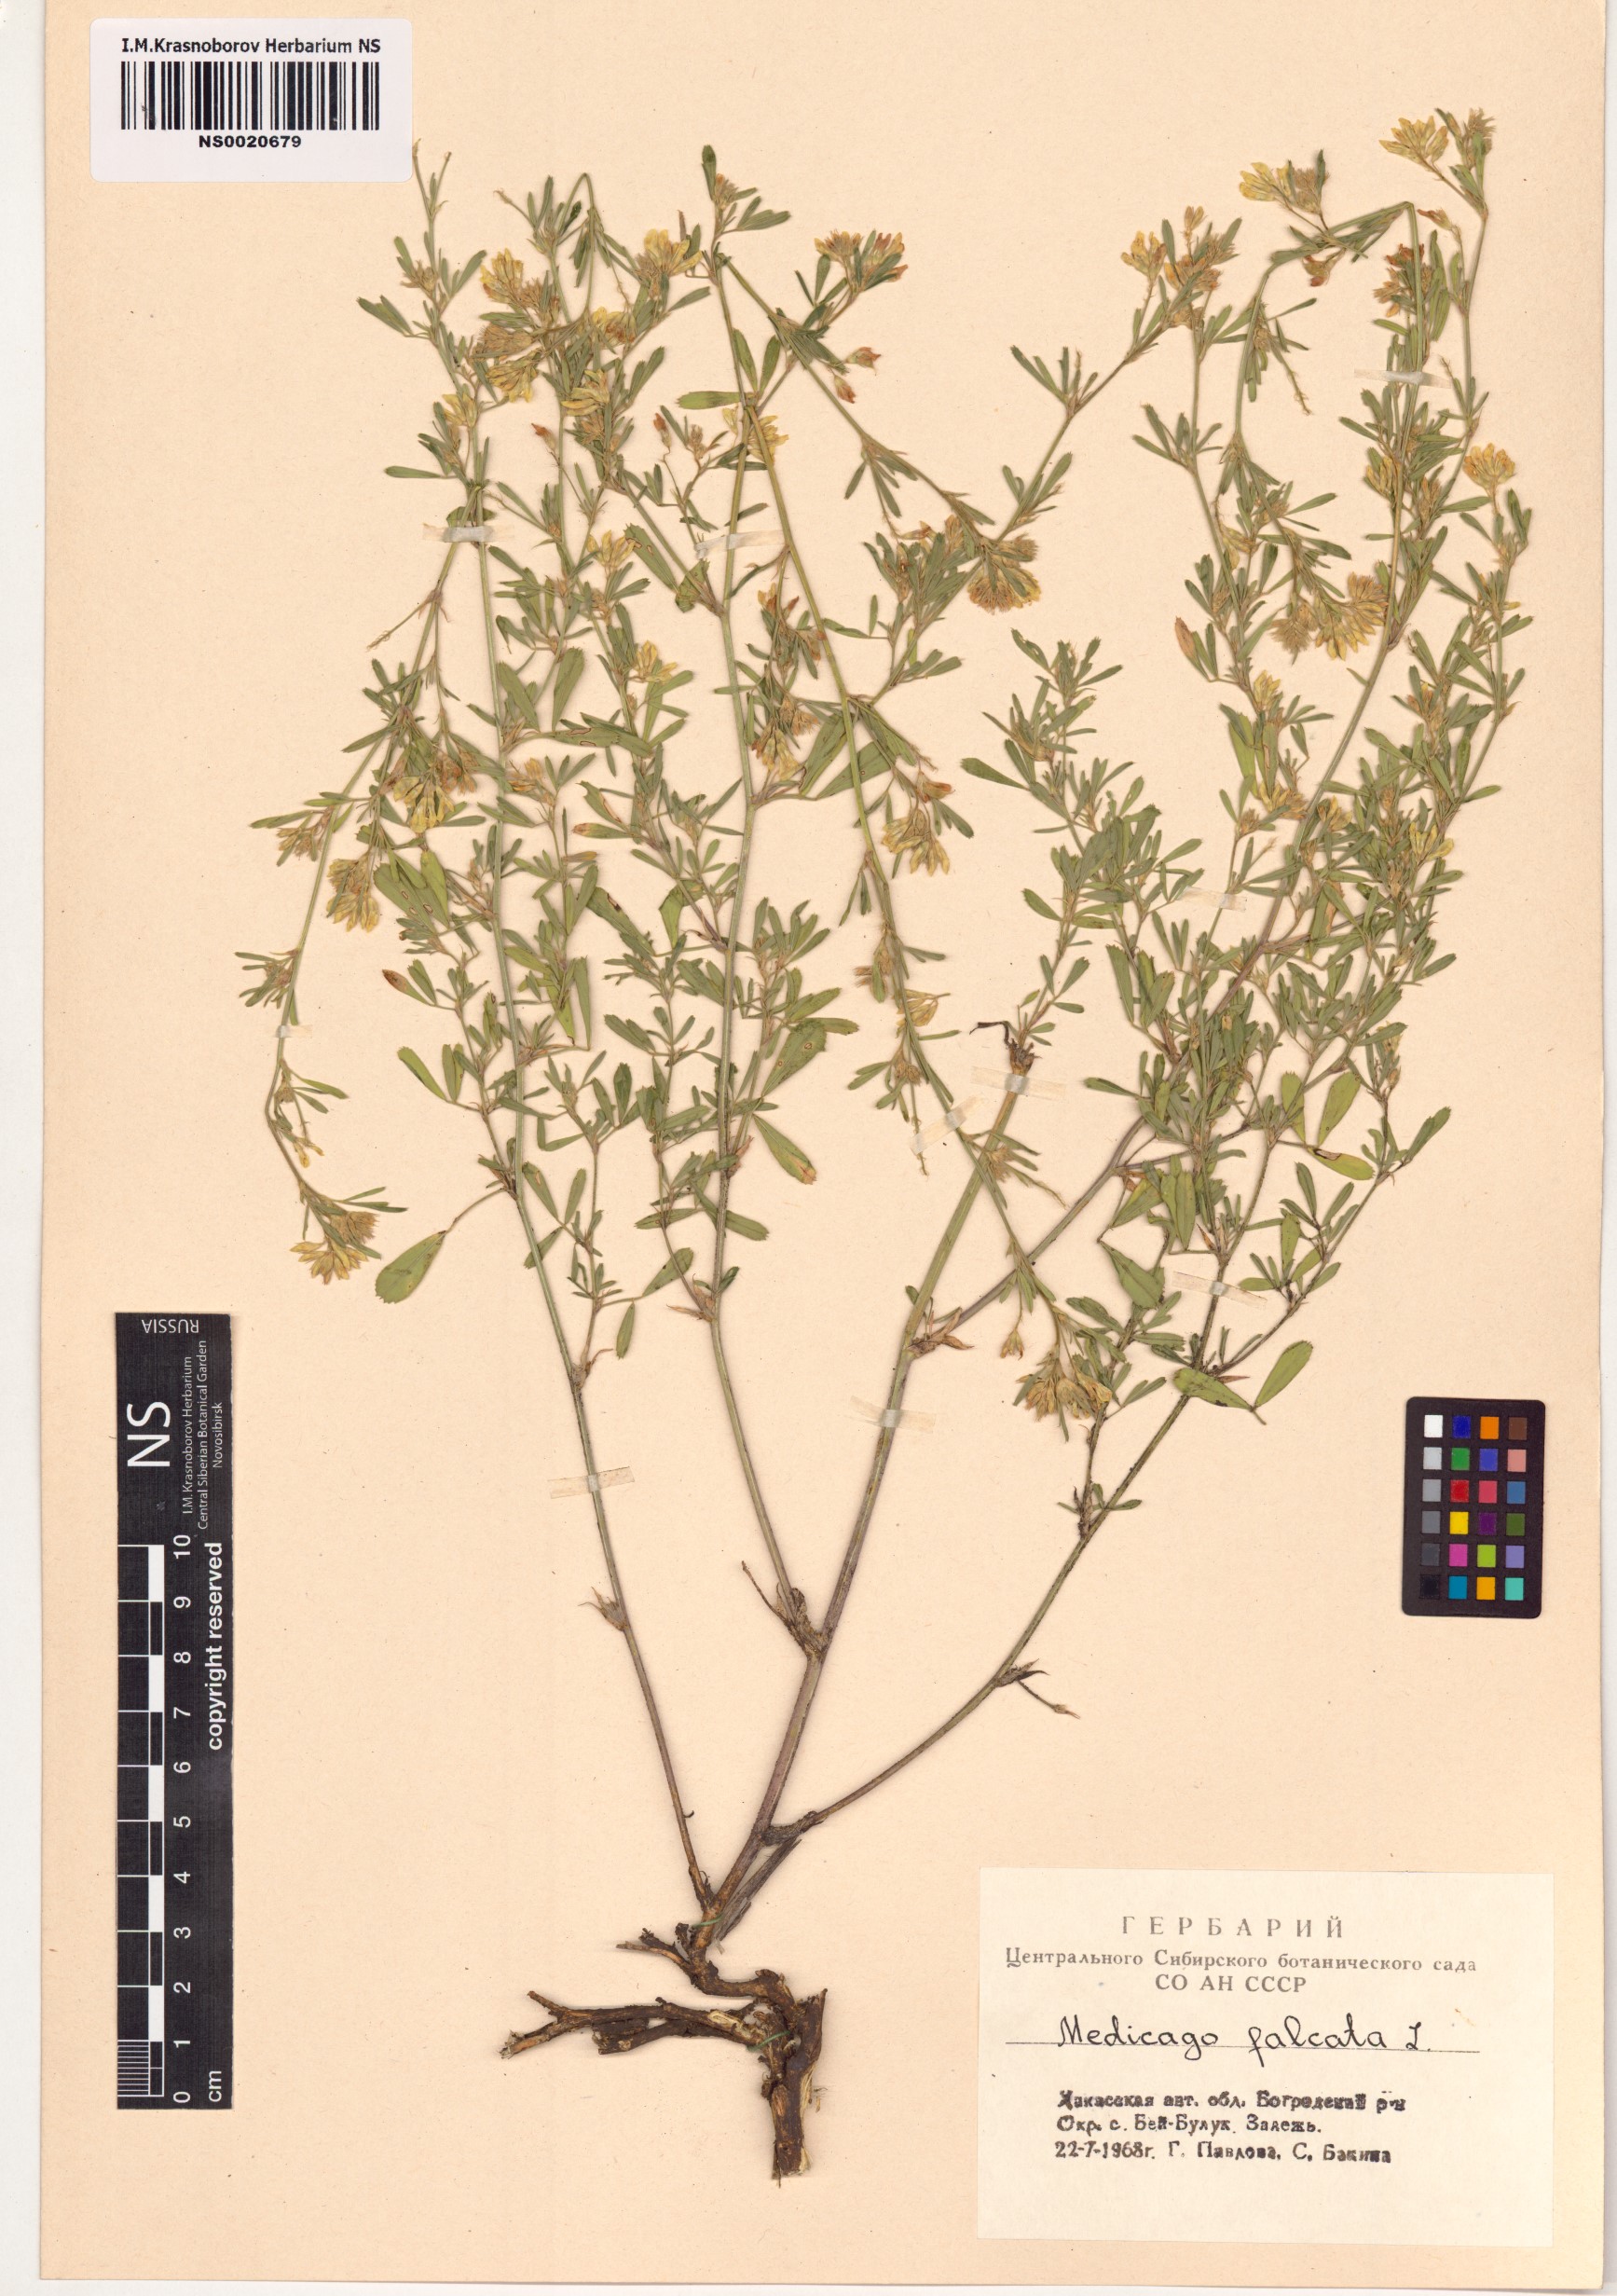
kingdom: Plantae
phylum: Tracheophyta
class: Magnoliopsida
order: Fabales
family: Fabaceae
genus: Medicago
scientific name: Medicago falcata
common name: Sickle medick
